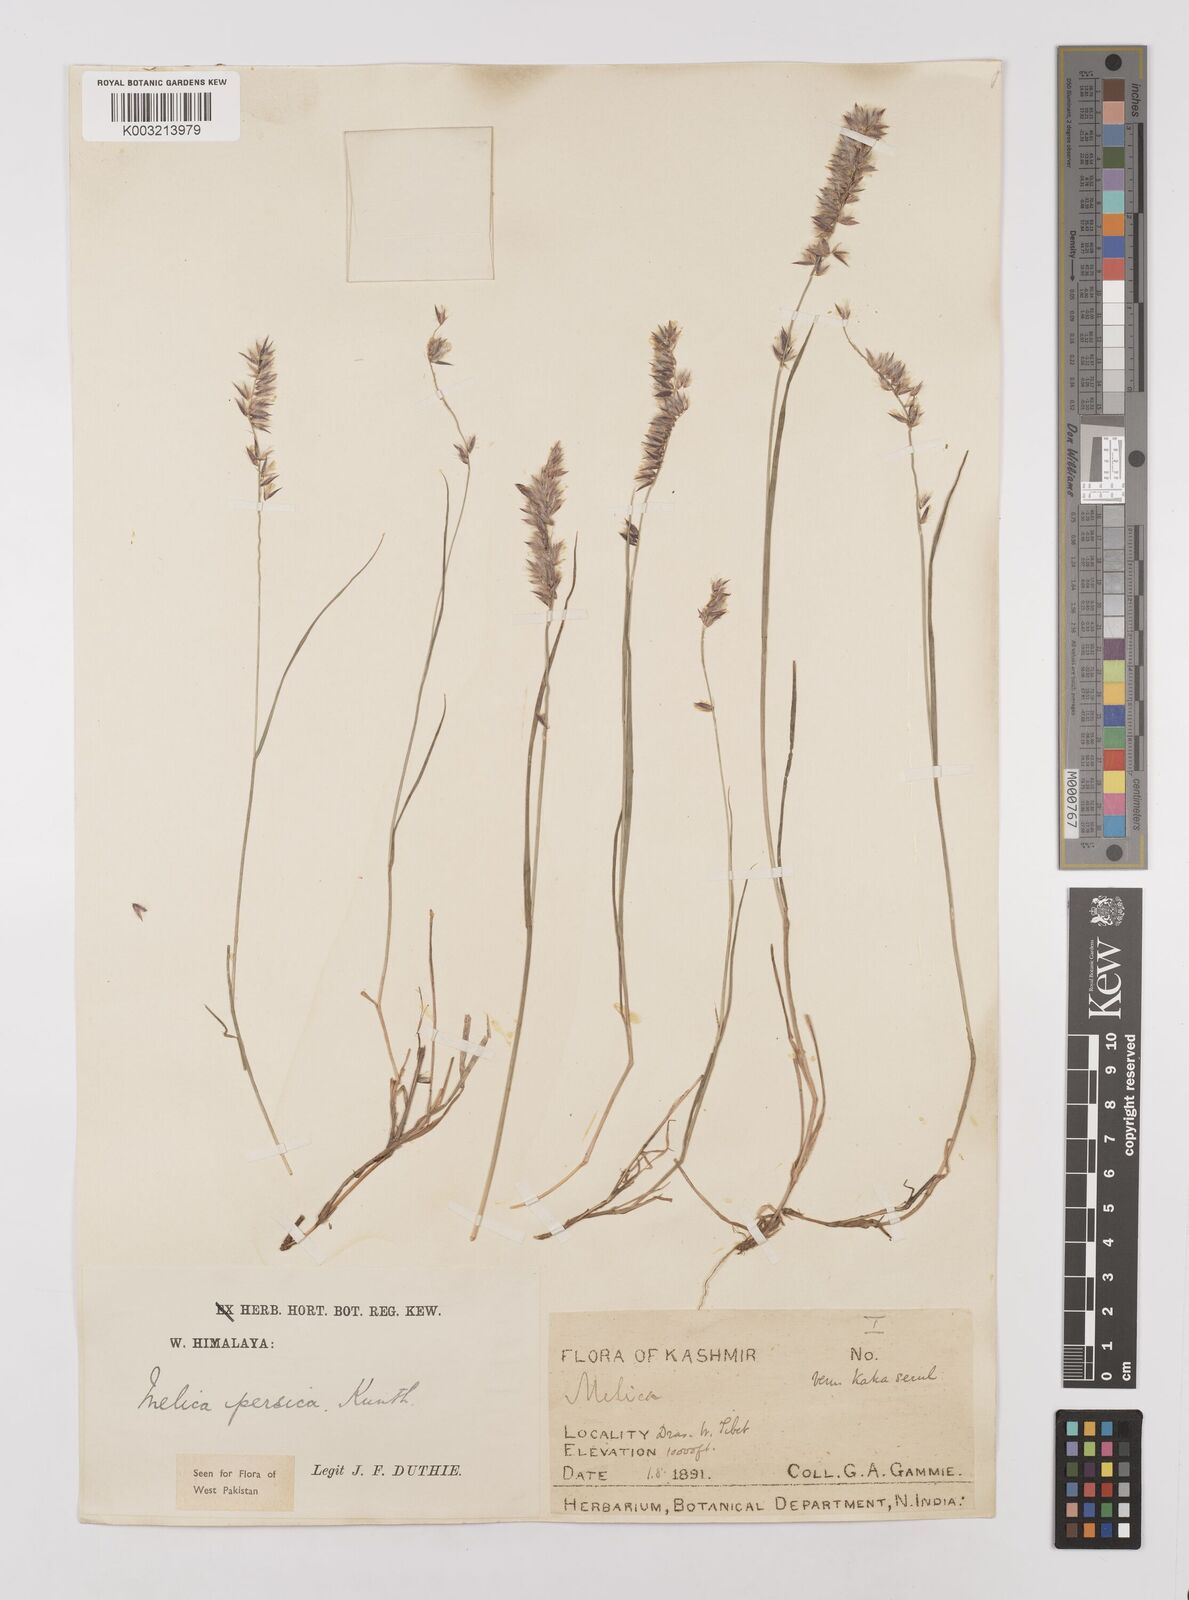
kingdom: Plantae
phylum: Tracheophyta
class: Liliopsida
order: Poales
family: Poaceae
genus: Melica
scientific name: Melica persica
